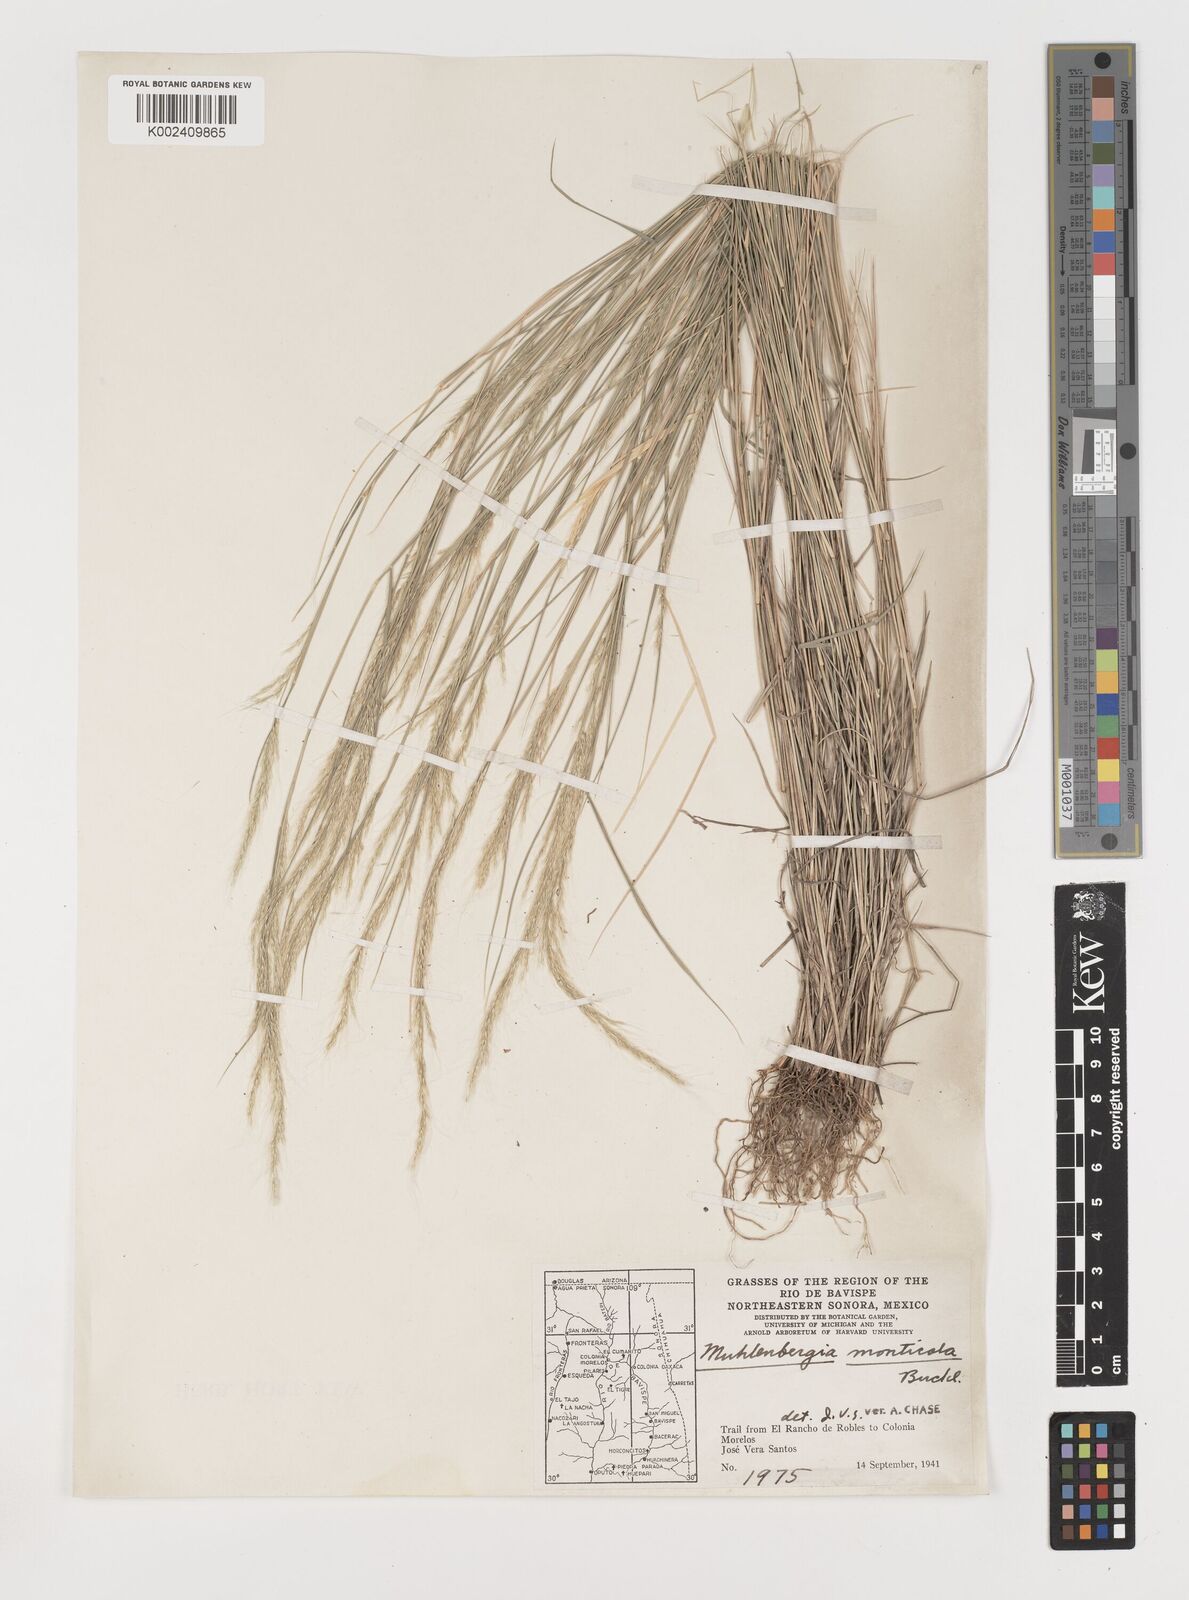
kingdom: Plantae
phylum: Tracheophyta
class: Liliopsida
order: Poales
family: Poaceae
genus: Muhlenbergia
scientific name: Muhlenbergia tenuifolia
